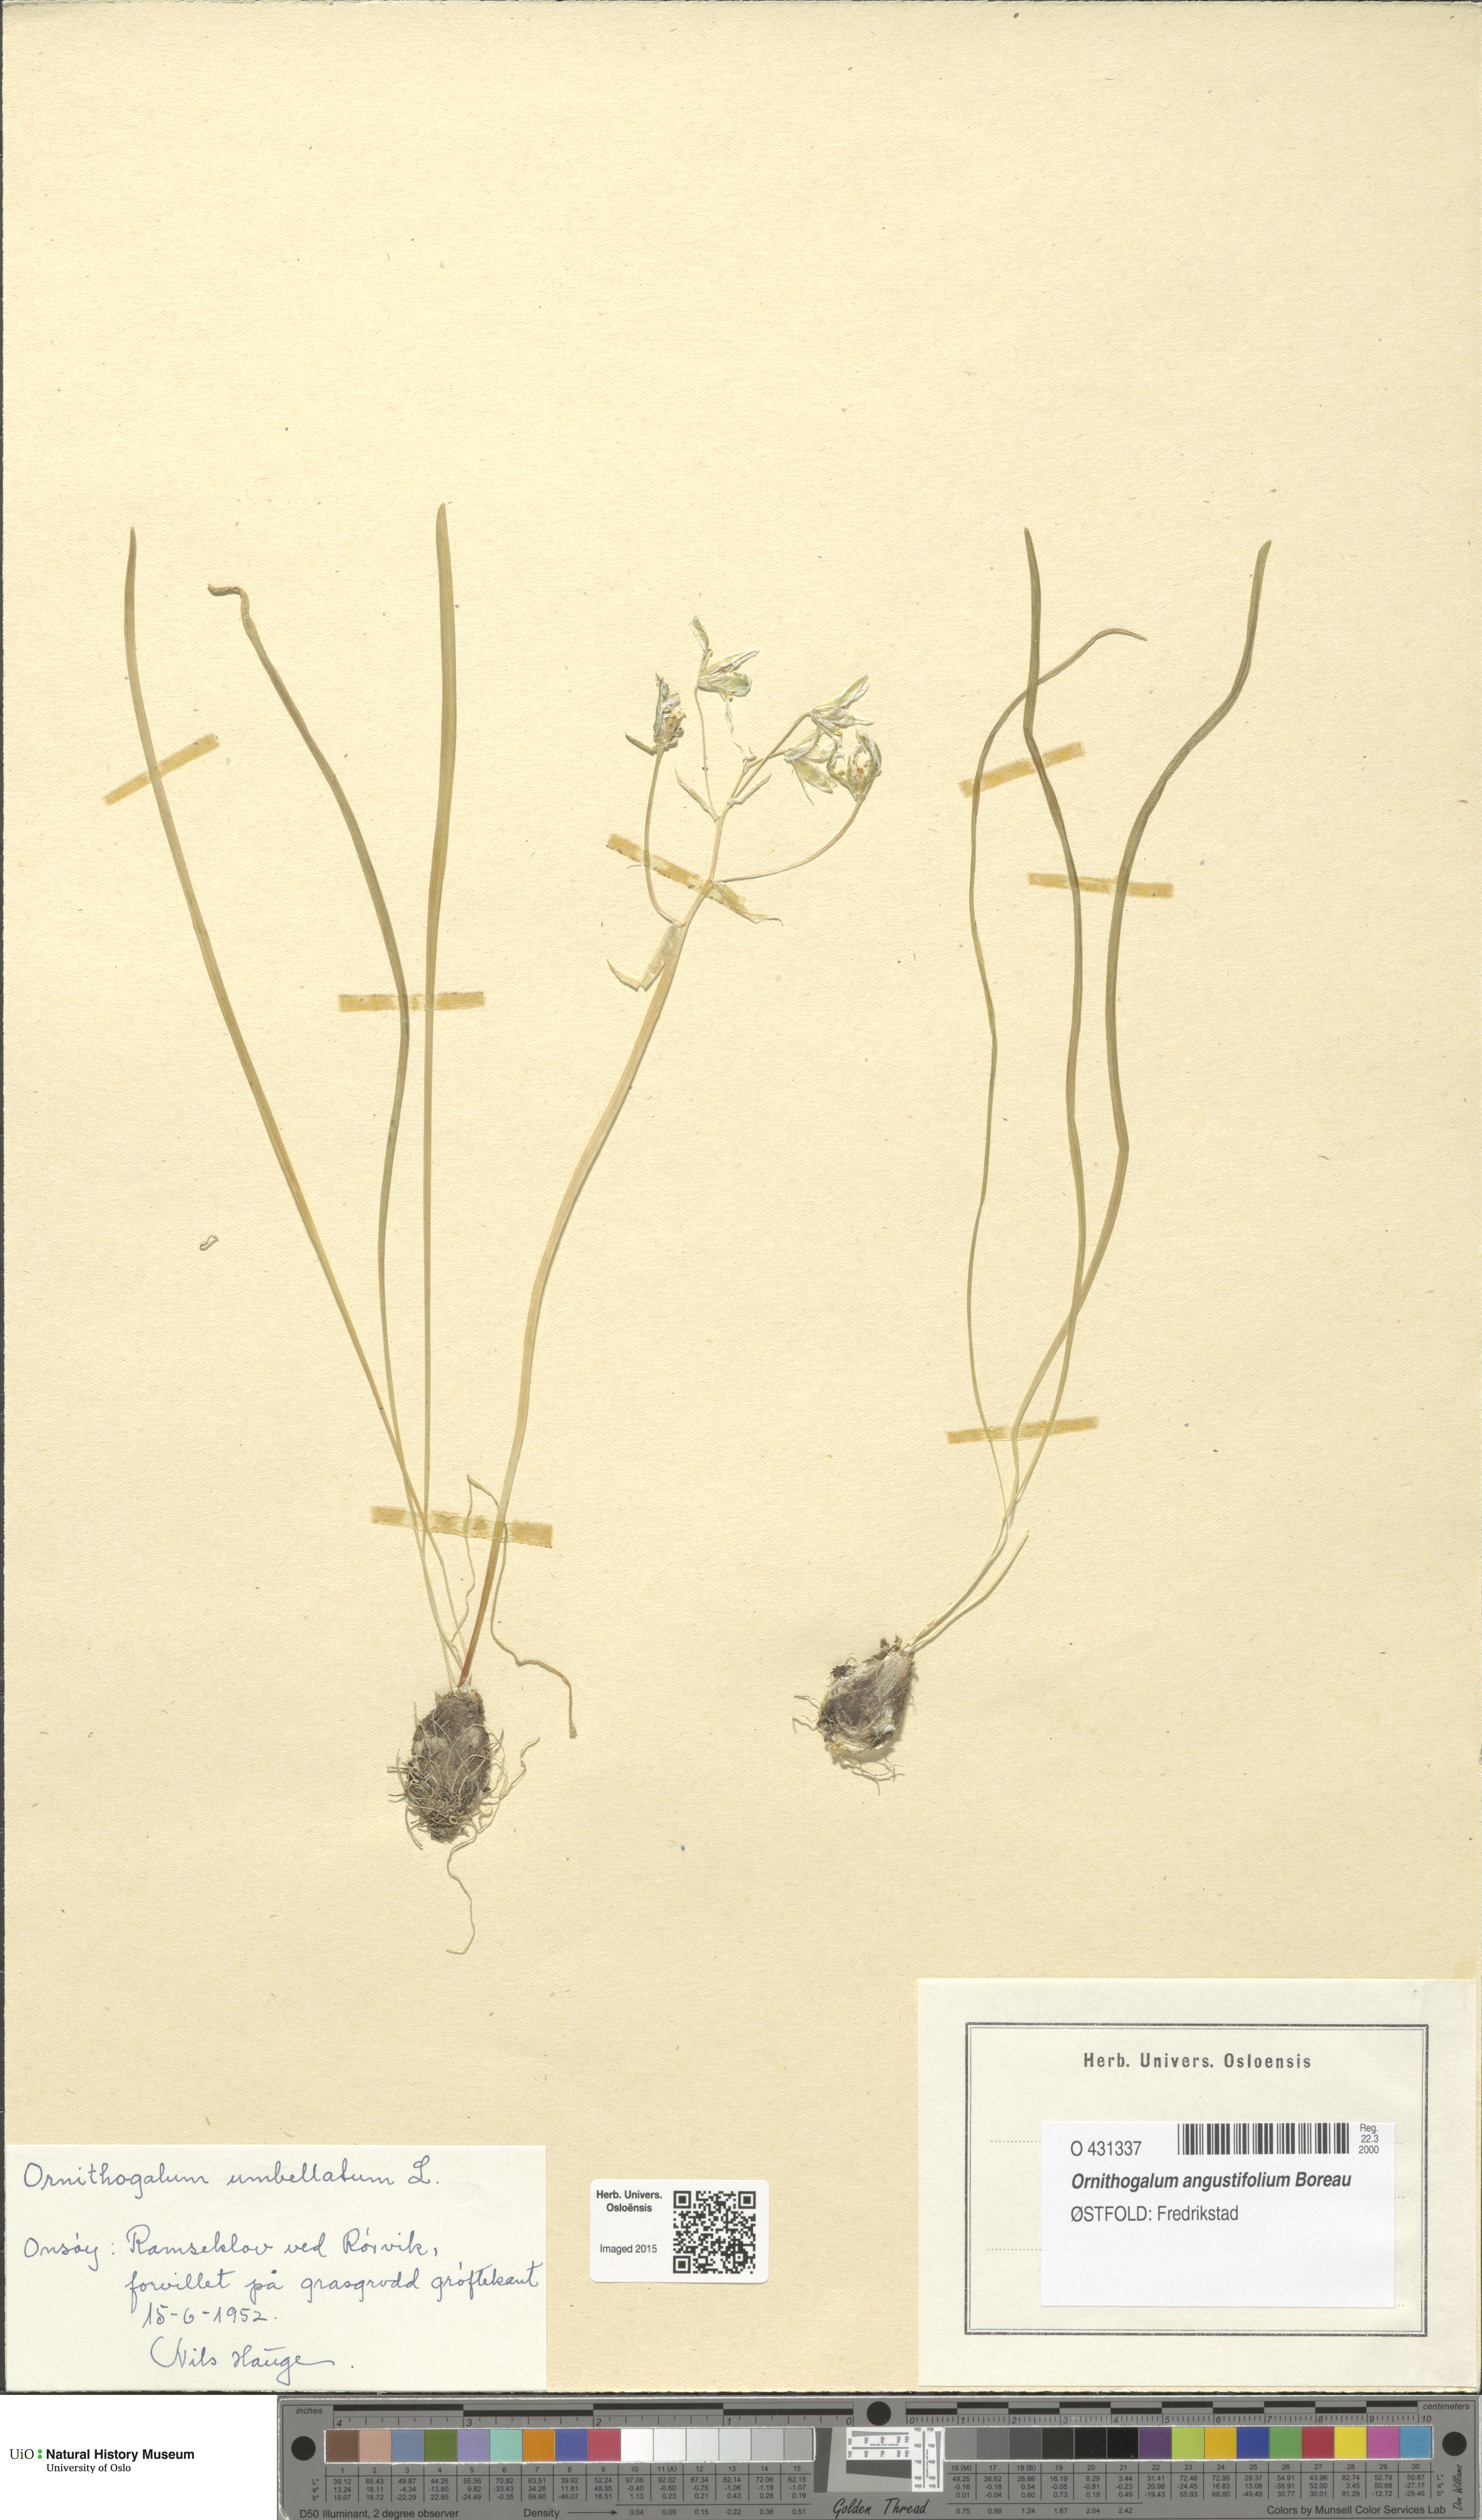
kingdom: Plantae
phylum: Tracheophyta
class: Liliopsida
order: Asparagales
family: Asparagaceae
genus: Ornithogalum
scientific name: Ornithogalum umbellatum
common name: Garden star-of-bethlehem
